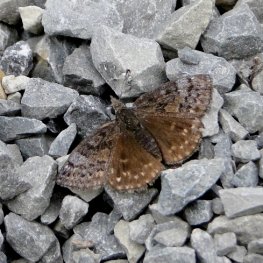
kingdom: Animalia
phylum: Arthropoda
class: Insecta
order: Lepidoptera
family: Hesperiidae
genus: Erynnis
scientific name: Erynnis icelus
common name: Dreamy Duskywing
